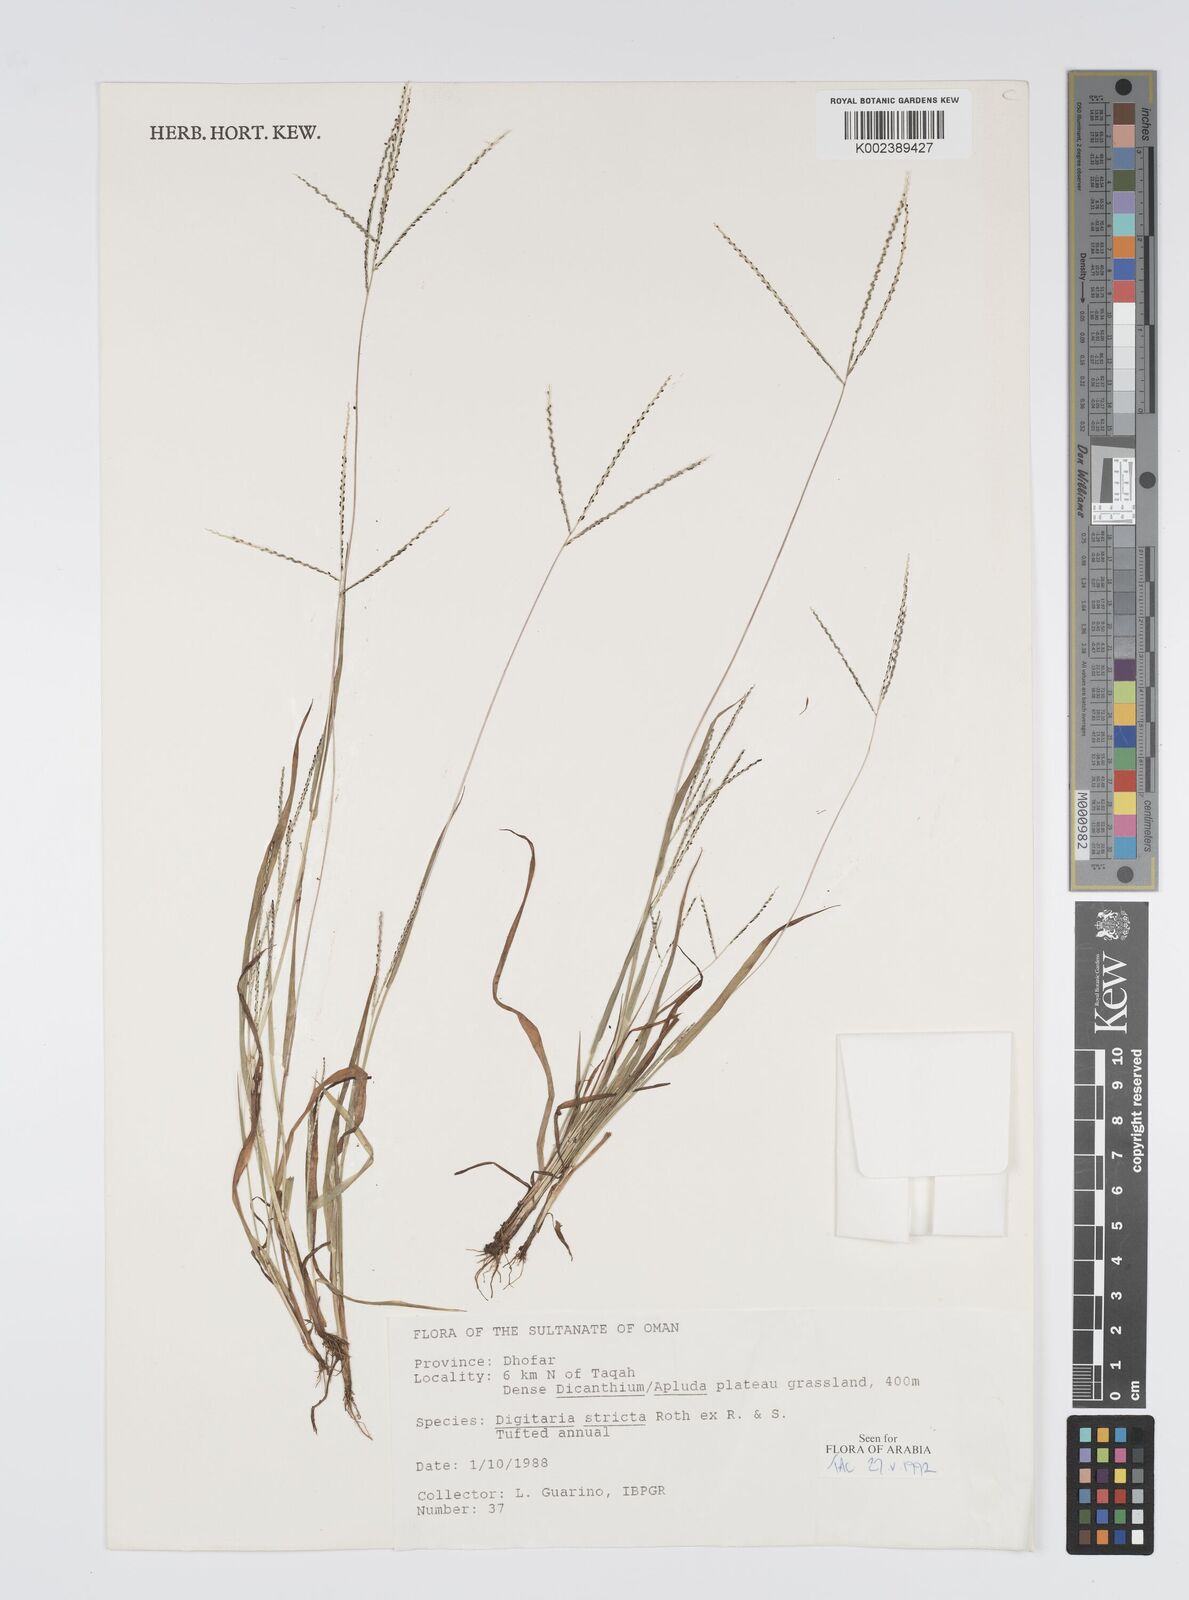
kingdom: Plantae
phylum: Tracheophyta
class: Liliopsida
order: Poales
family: Poaceae
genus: Digitaria
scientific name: Digitaria stricta
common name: Crabgrass
